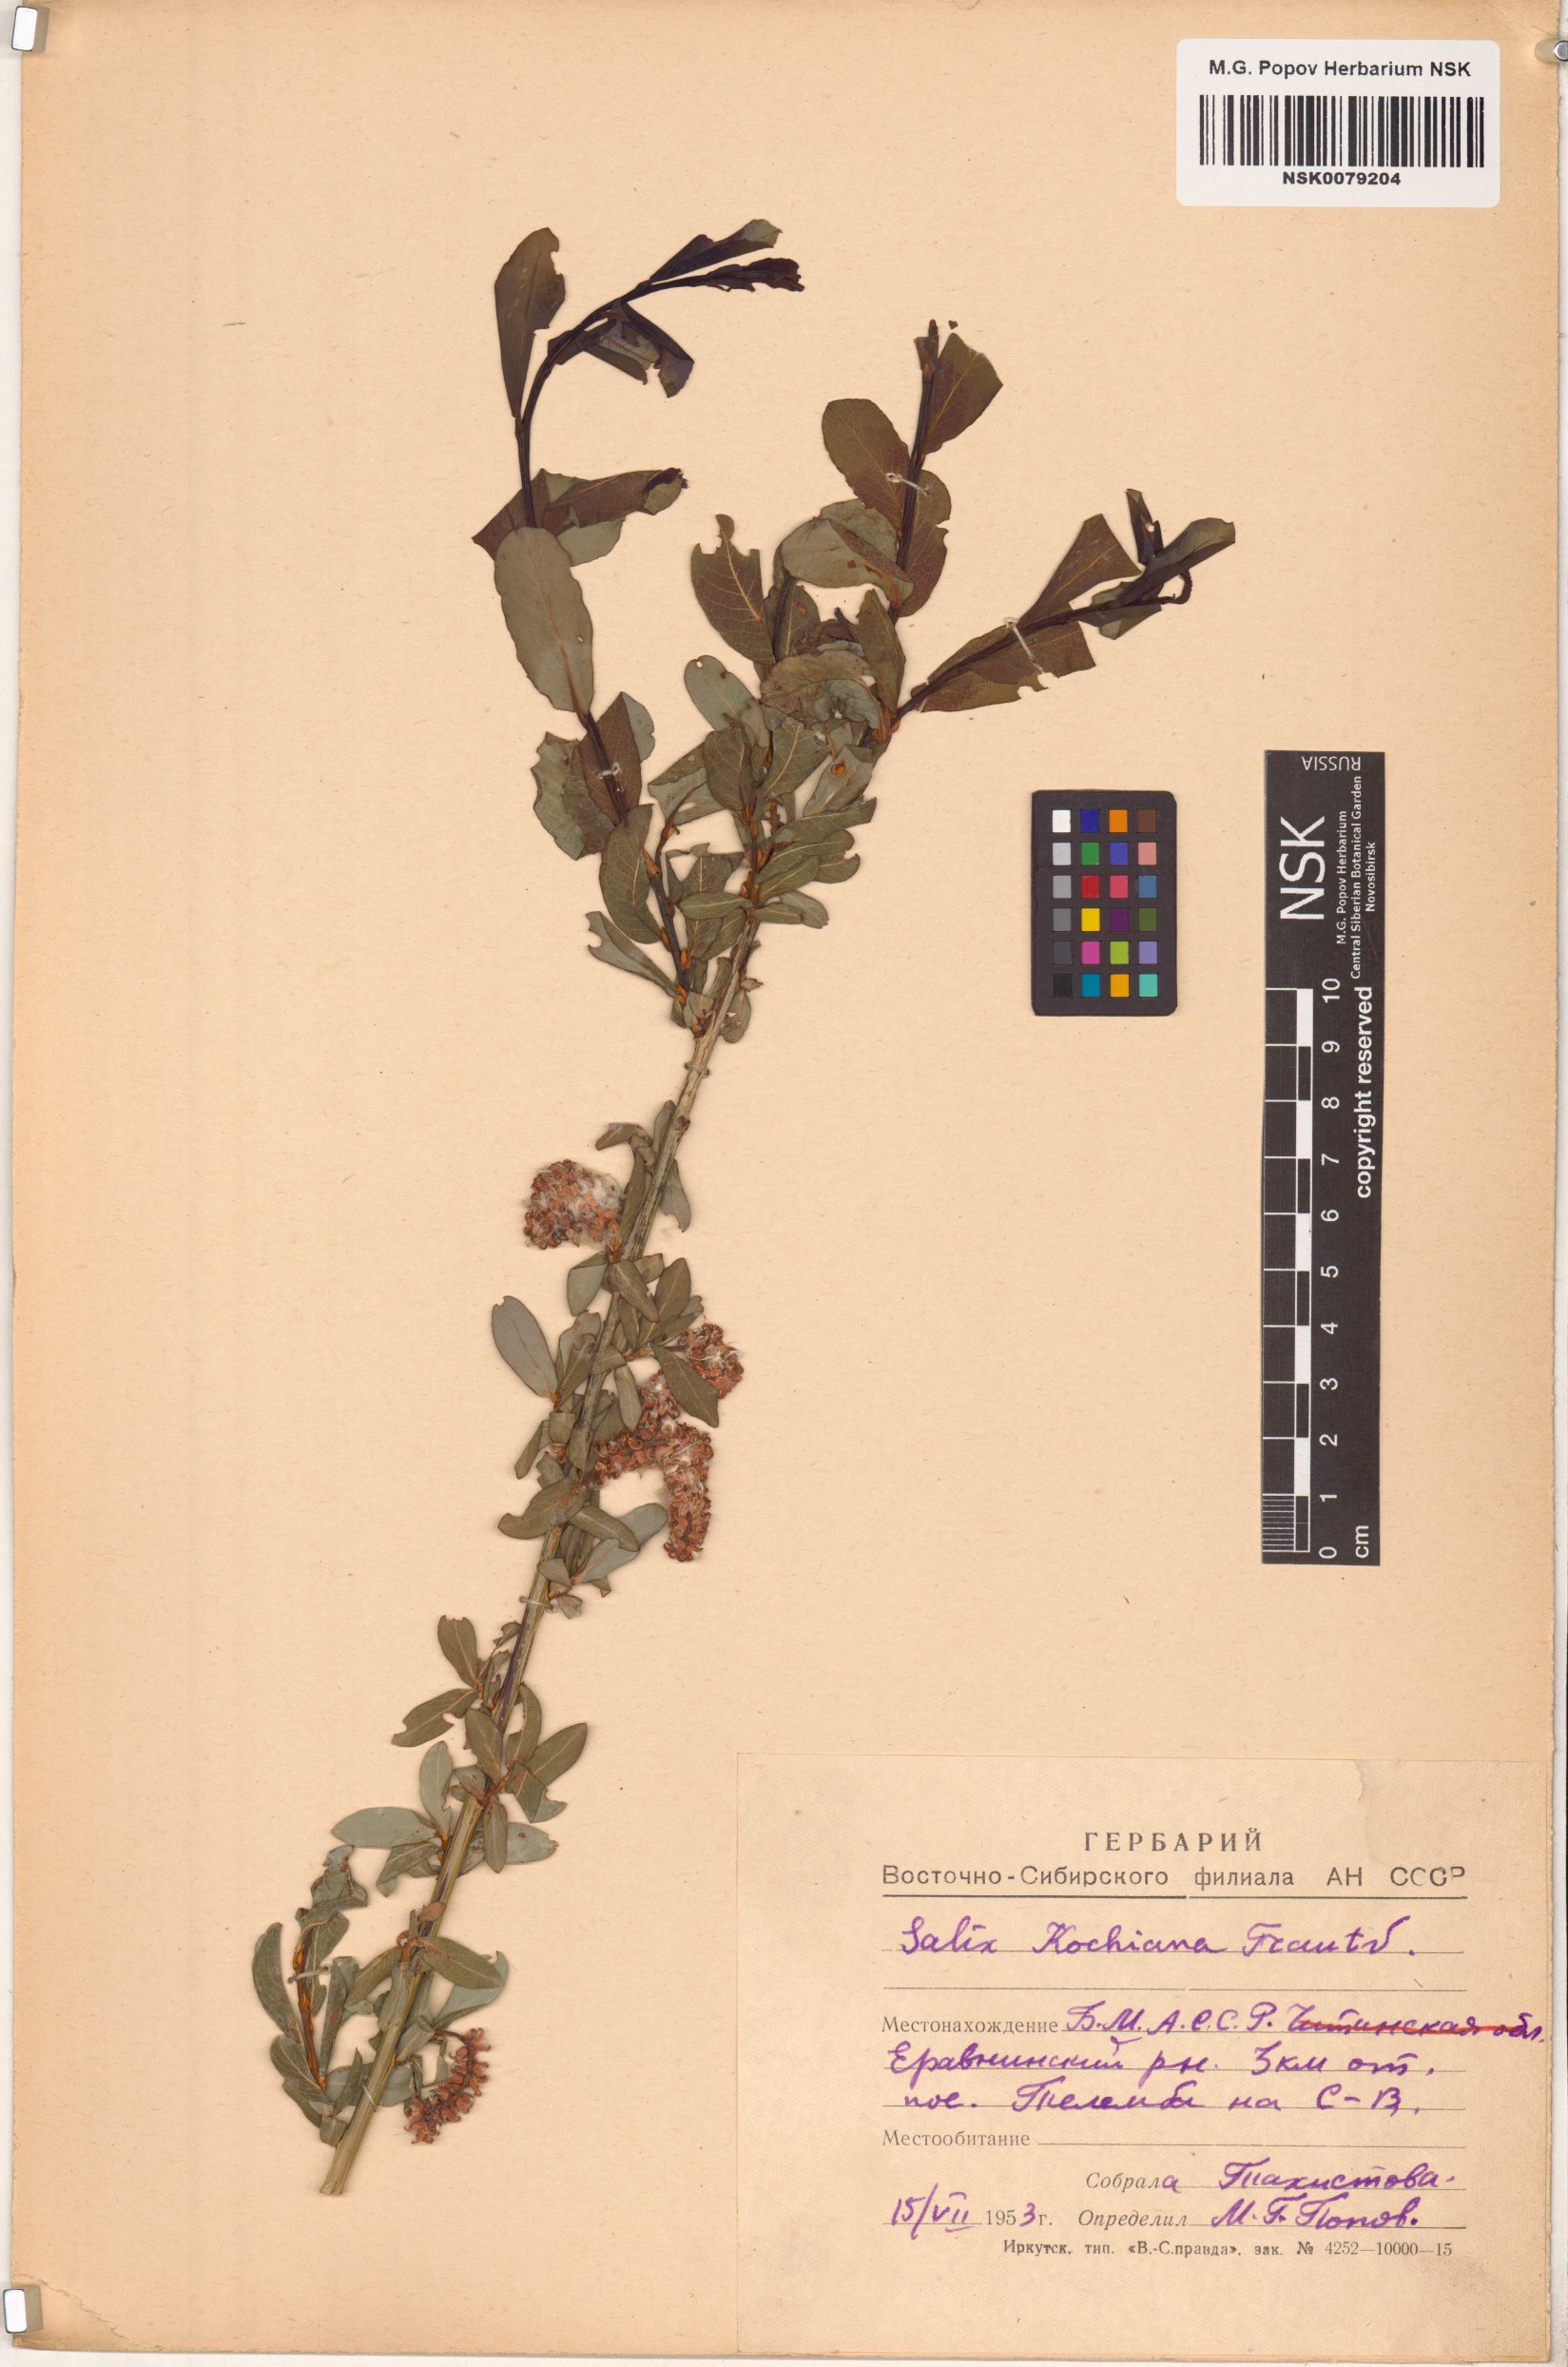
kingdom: Plantae
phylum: Tracheophyta
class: Magnoliopsida
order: Malpighiales
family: Salicaceae
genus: Salix
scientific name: Salix kochiana
